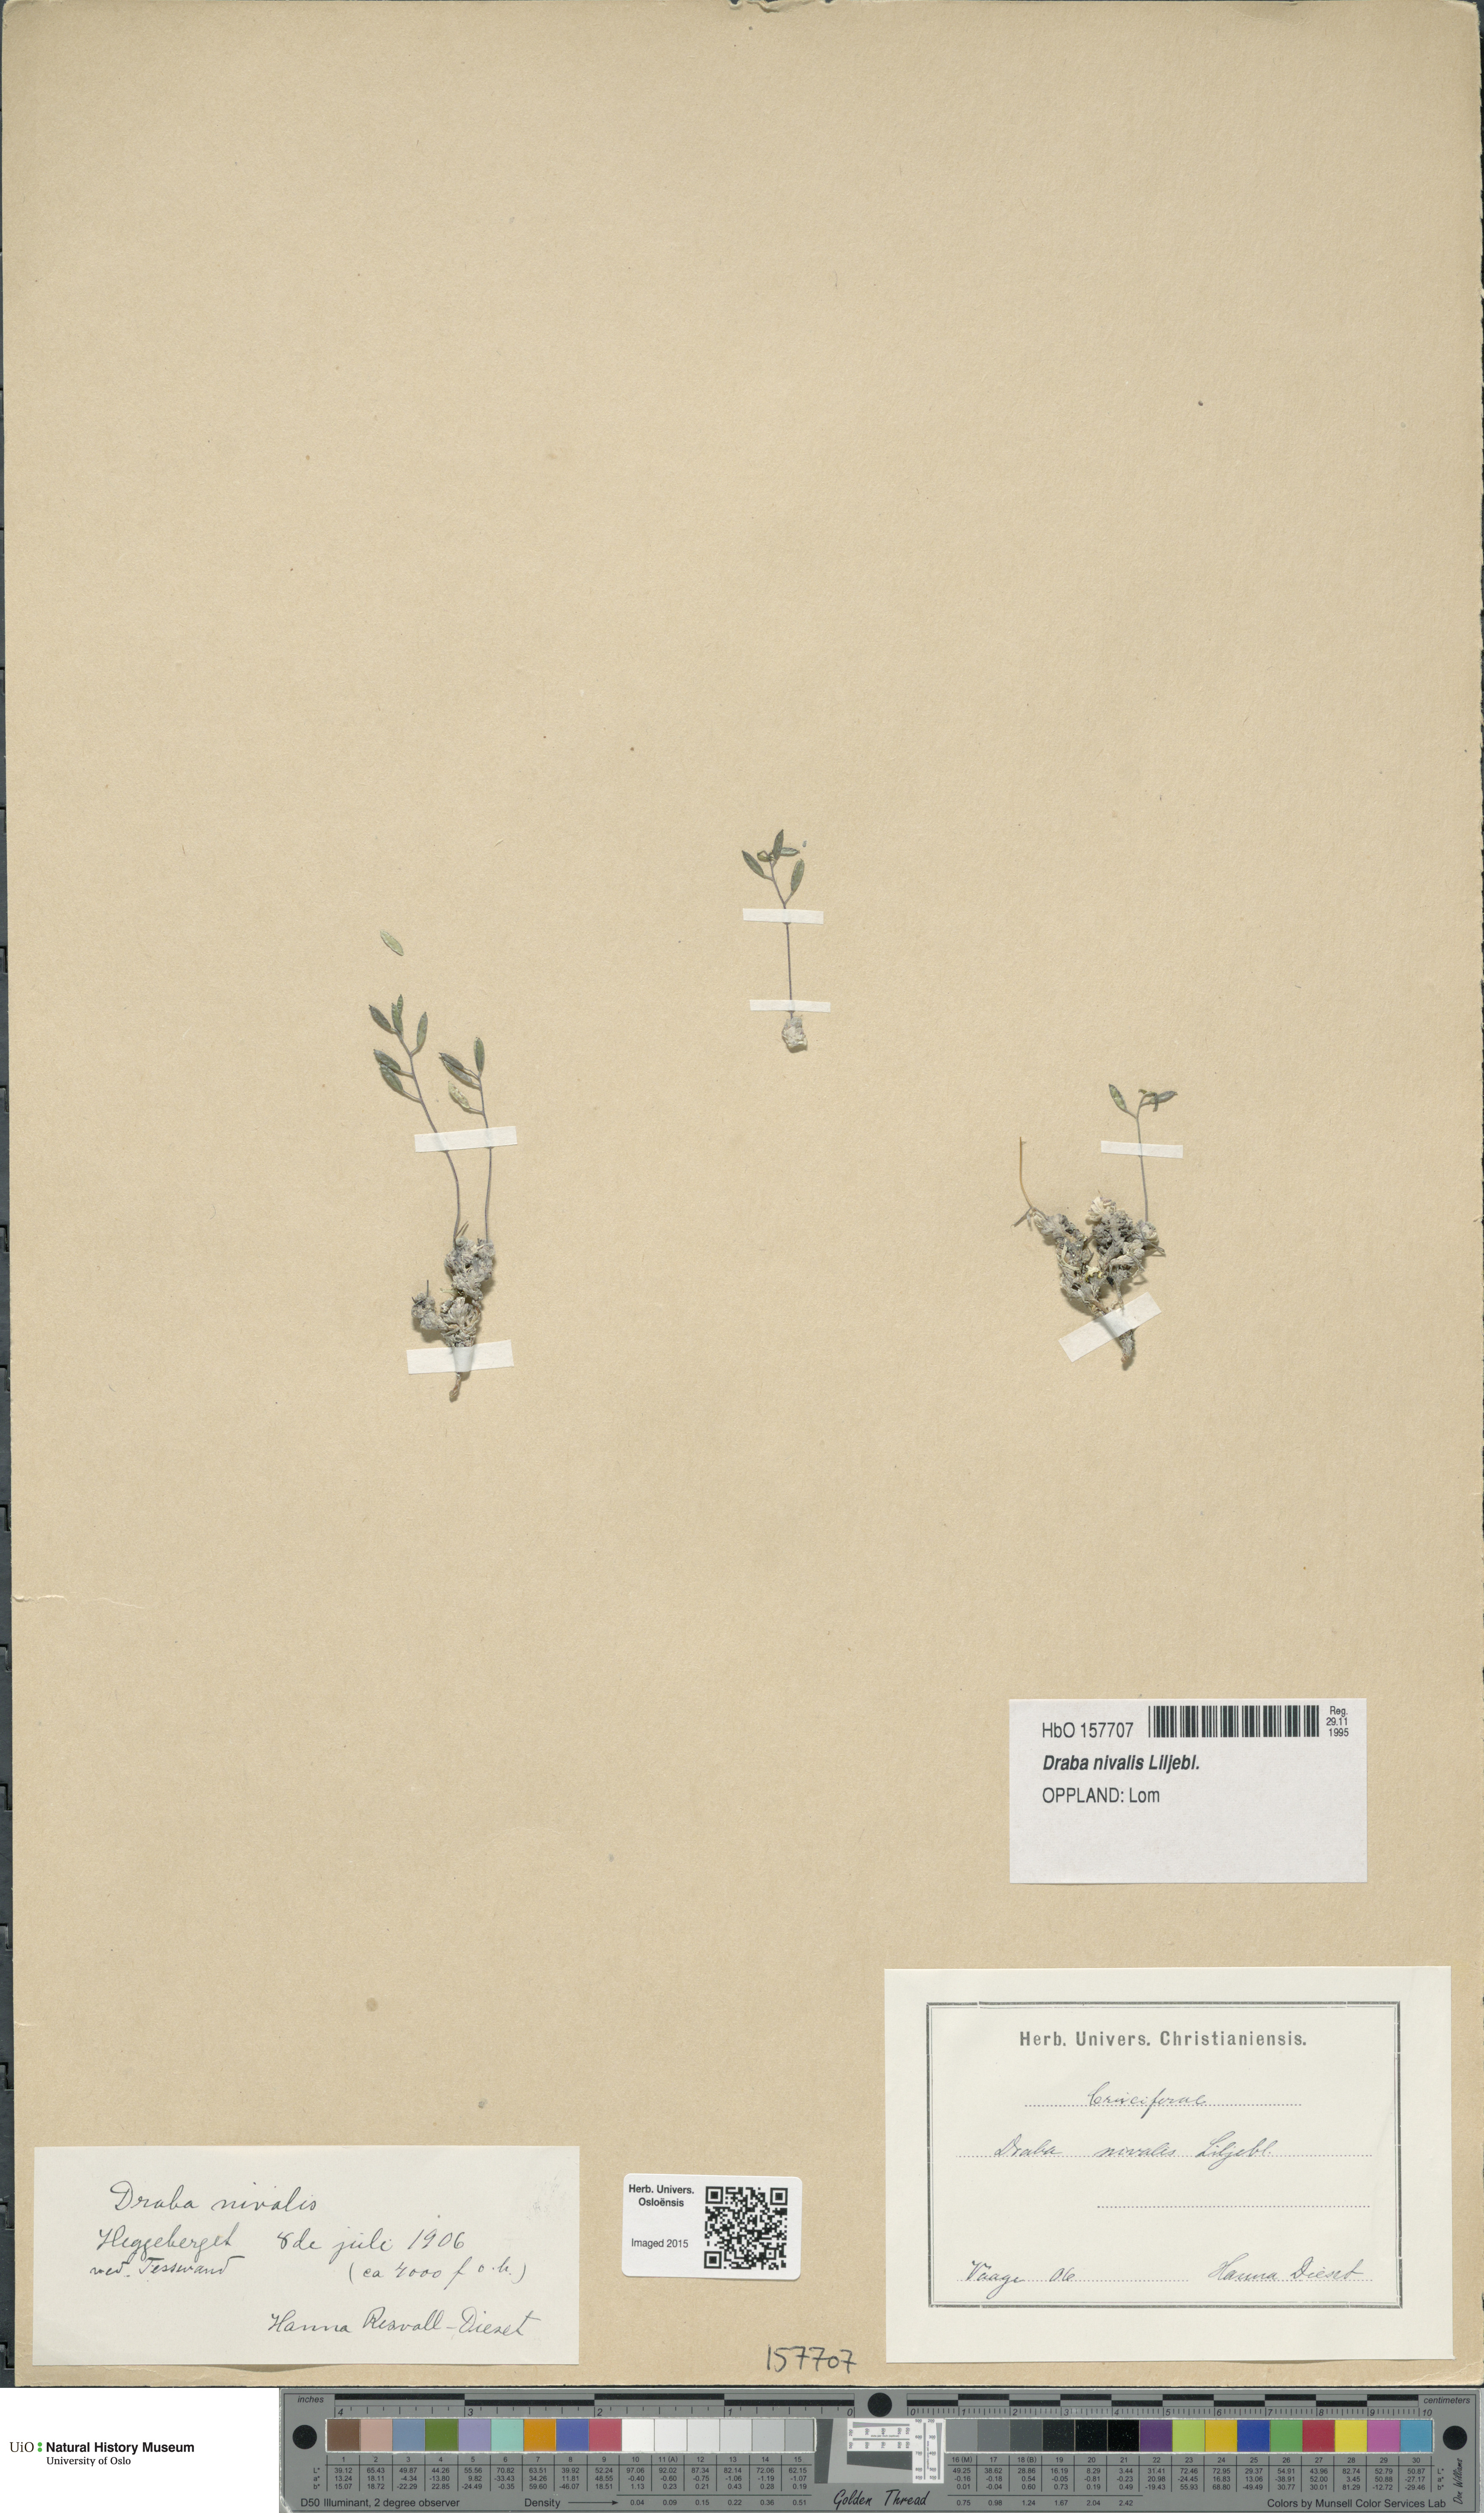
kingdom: Plantae
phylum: Tracheophyta
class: Magnoliopsida
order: Brassicales
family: Brassicaceae
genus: Draba
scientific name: Draba nivalis
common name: Snow draba
